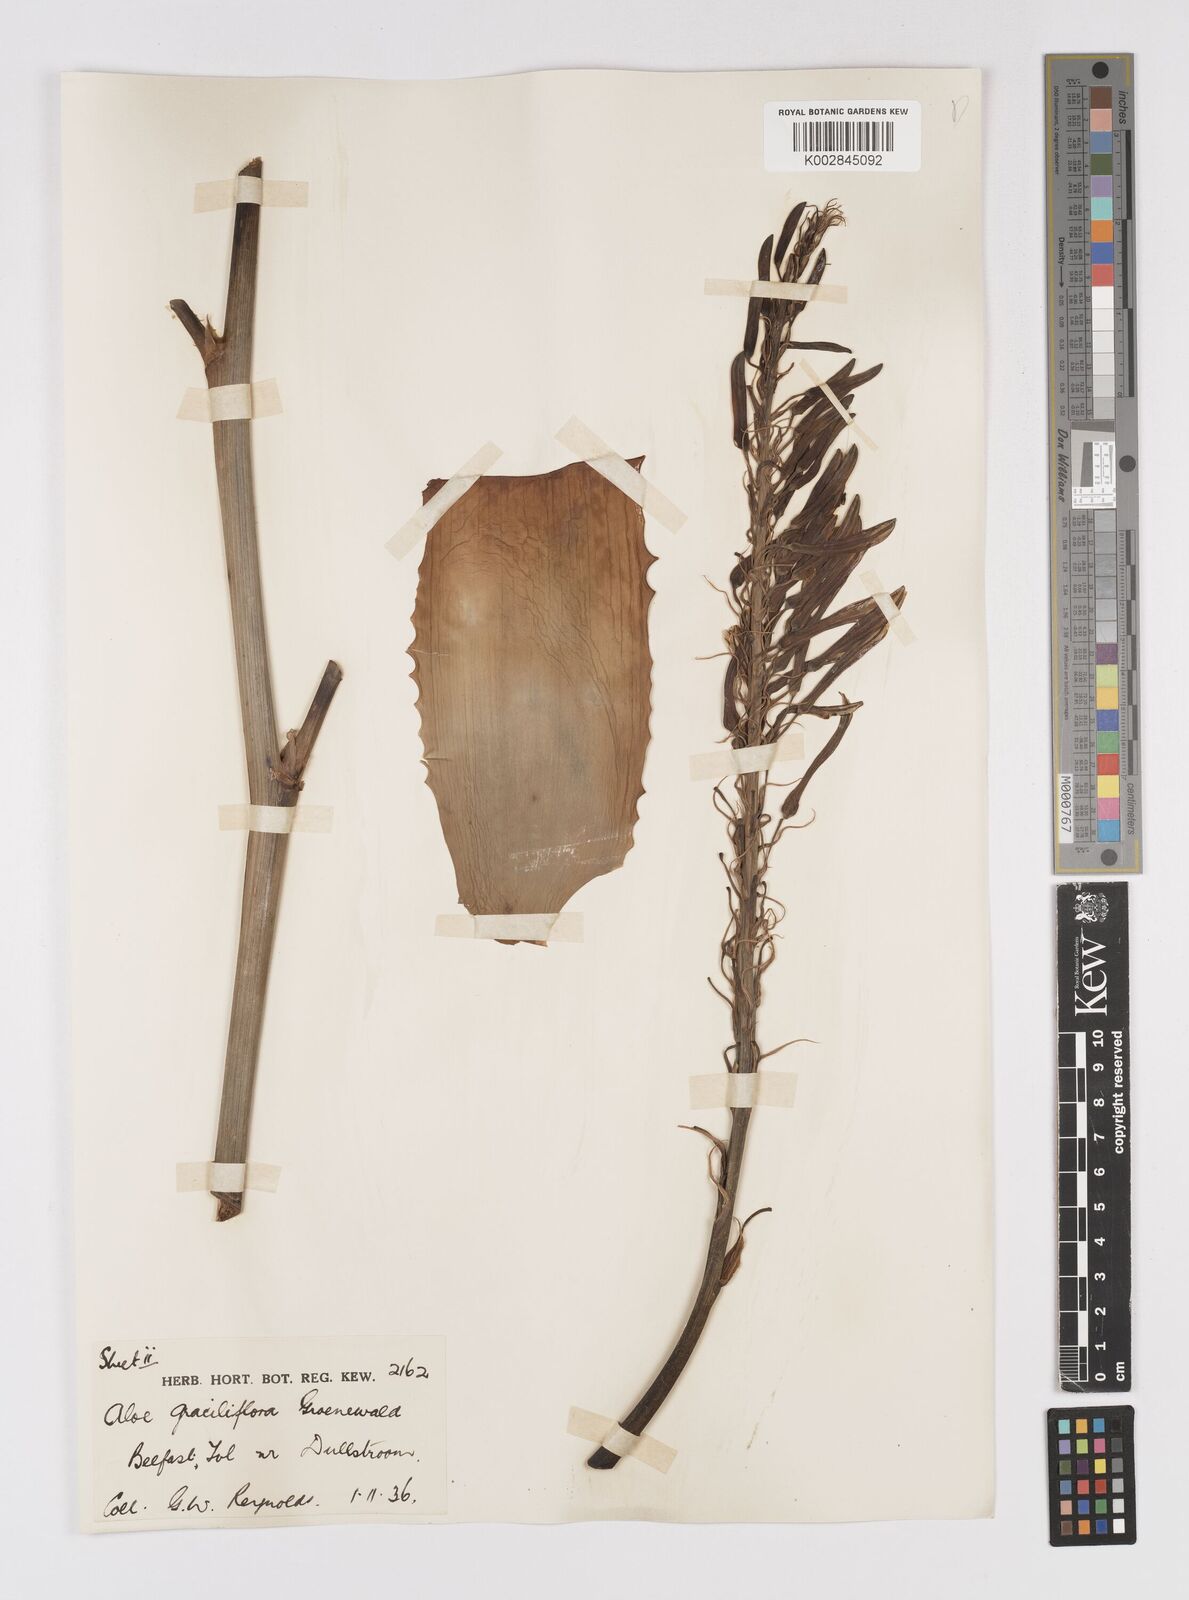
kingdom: Plantae
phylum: Tracheophyta
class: Liliopsida
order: Asparagales
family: Asphodelaceae
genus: Aloe
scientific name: Aloe graciliflora
